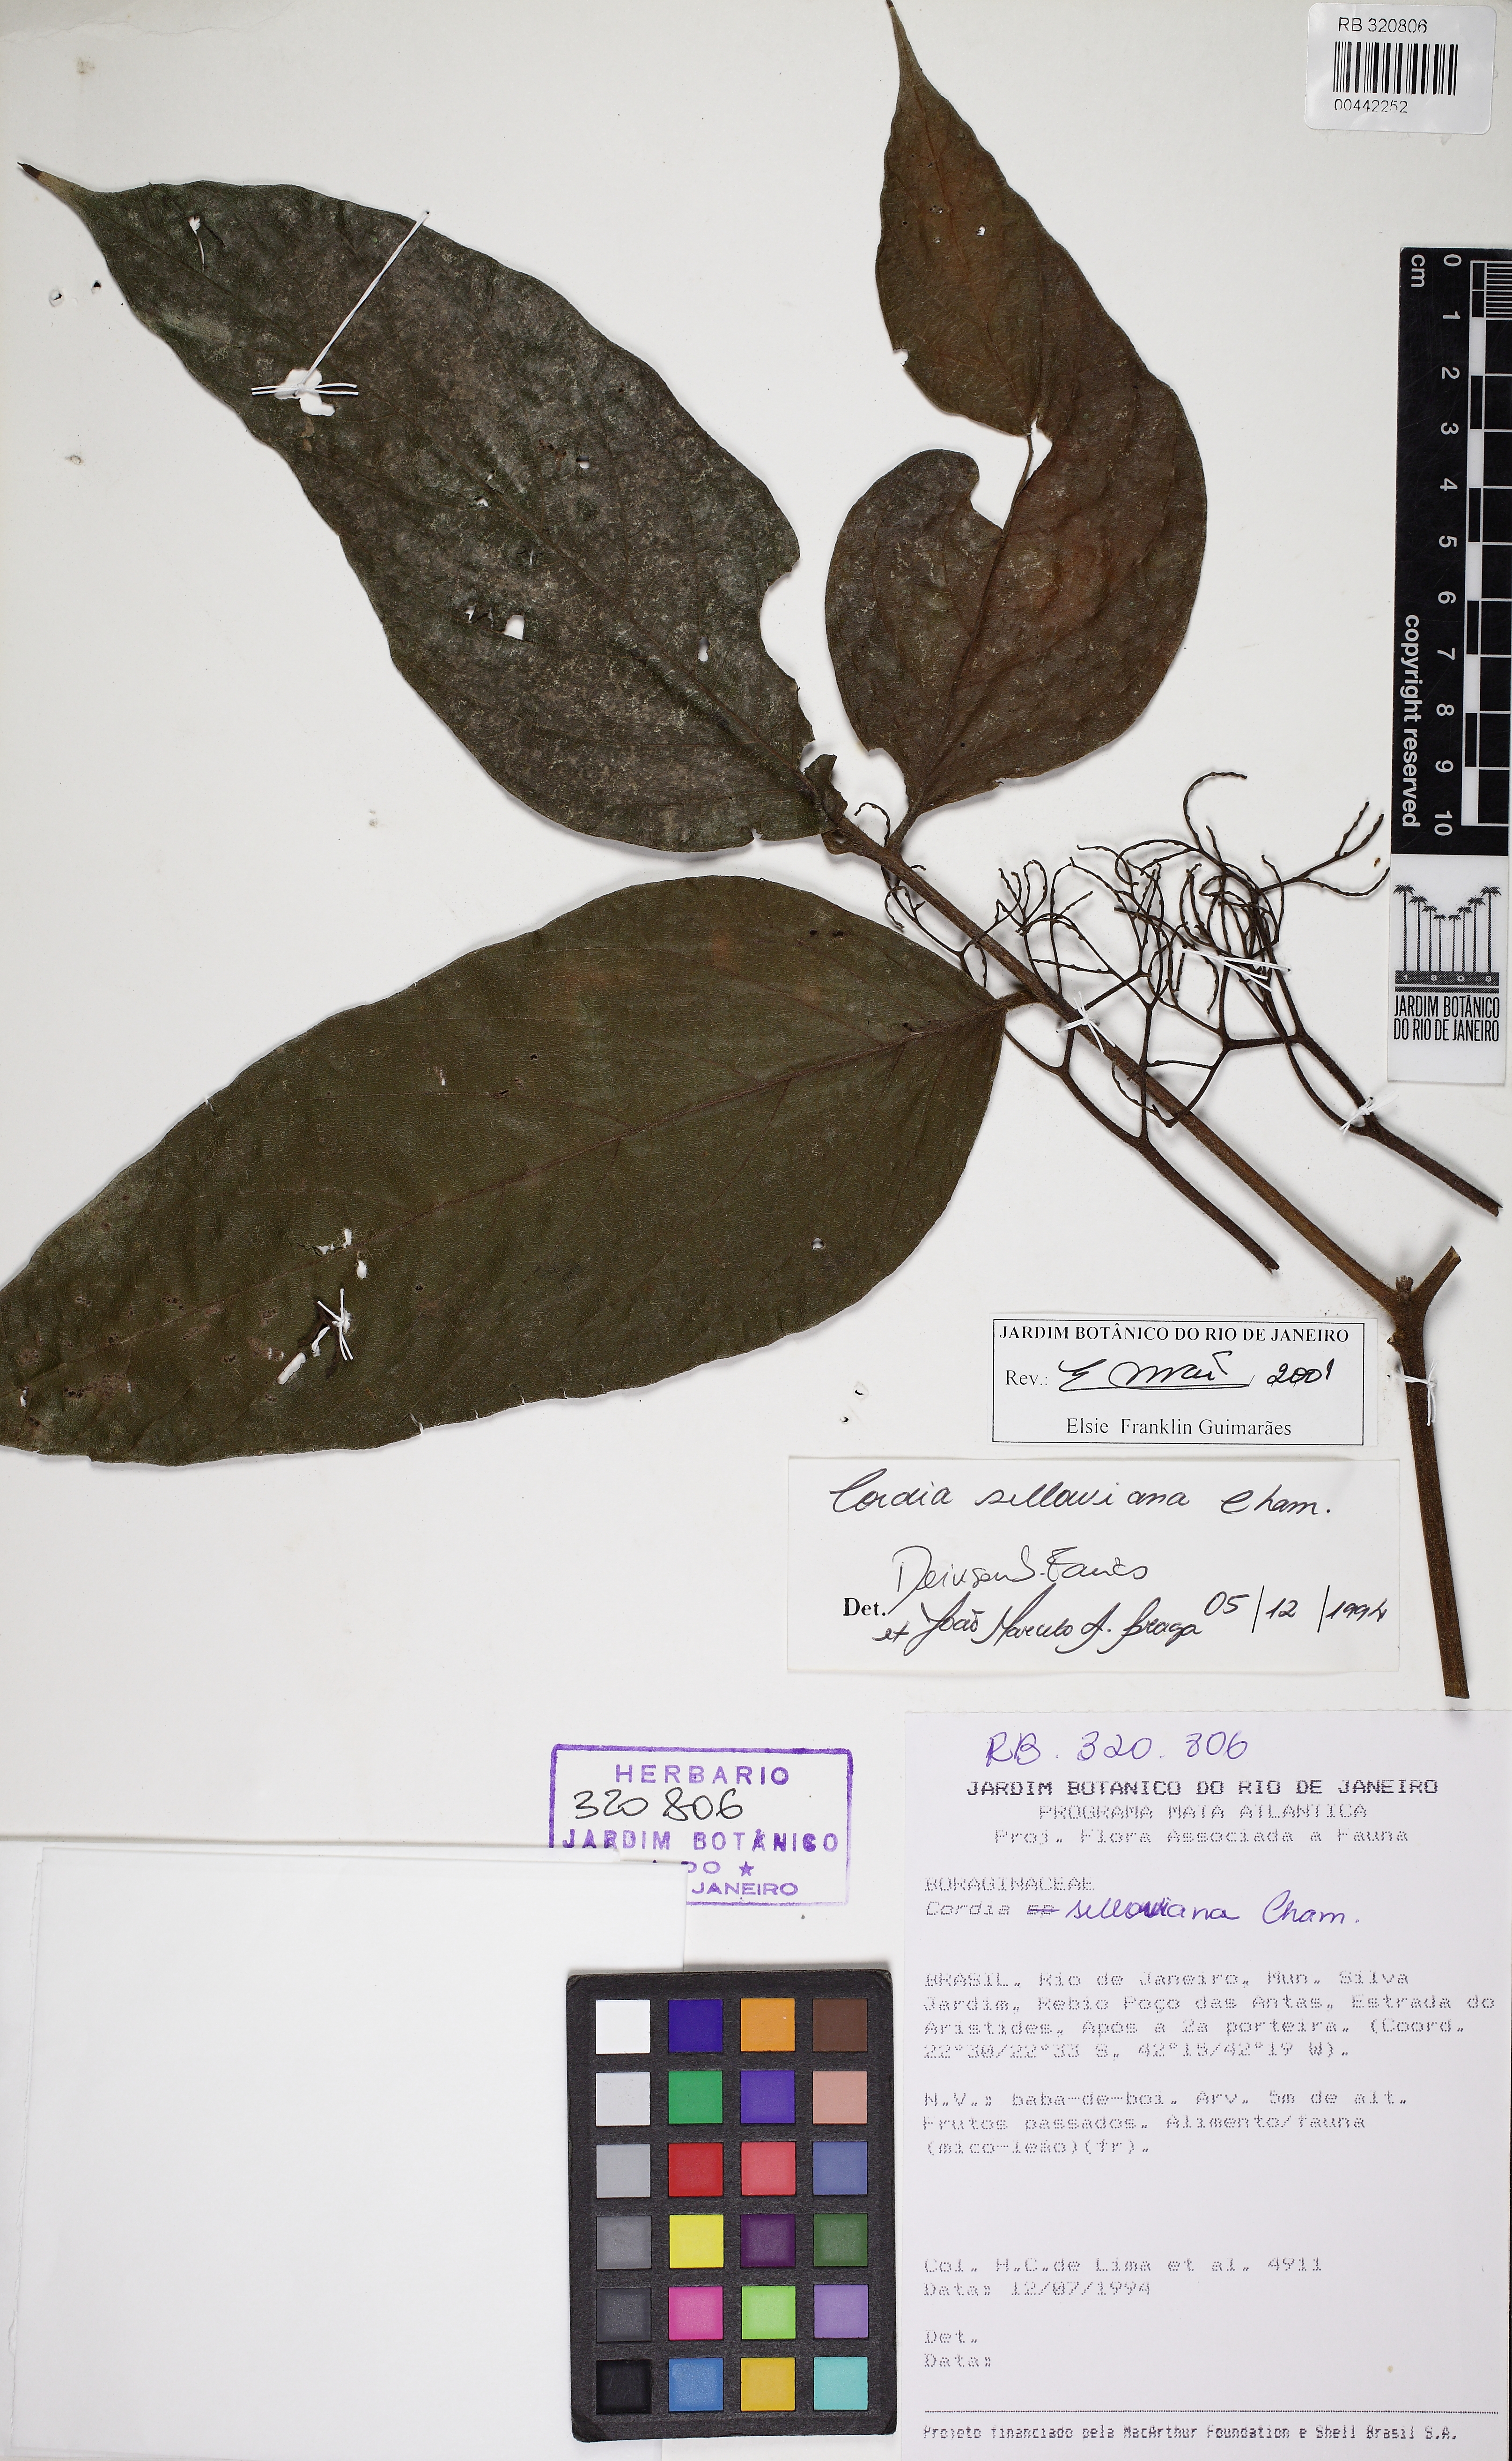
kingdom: Plantae
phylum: Tracheophyta
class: Magnoliopsida
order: Boraginales
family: Cordiaceae
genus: Cordia
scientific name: Cordia sellowiana
